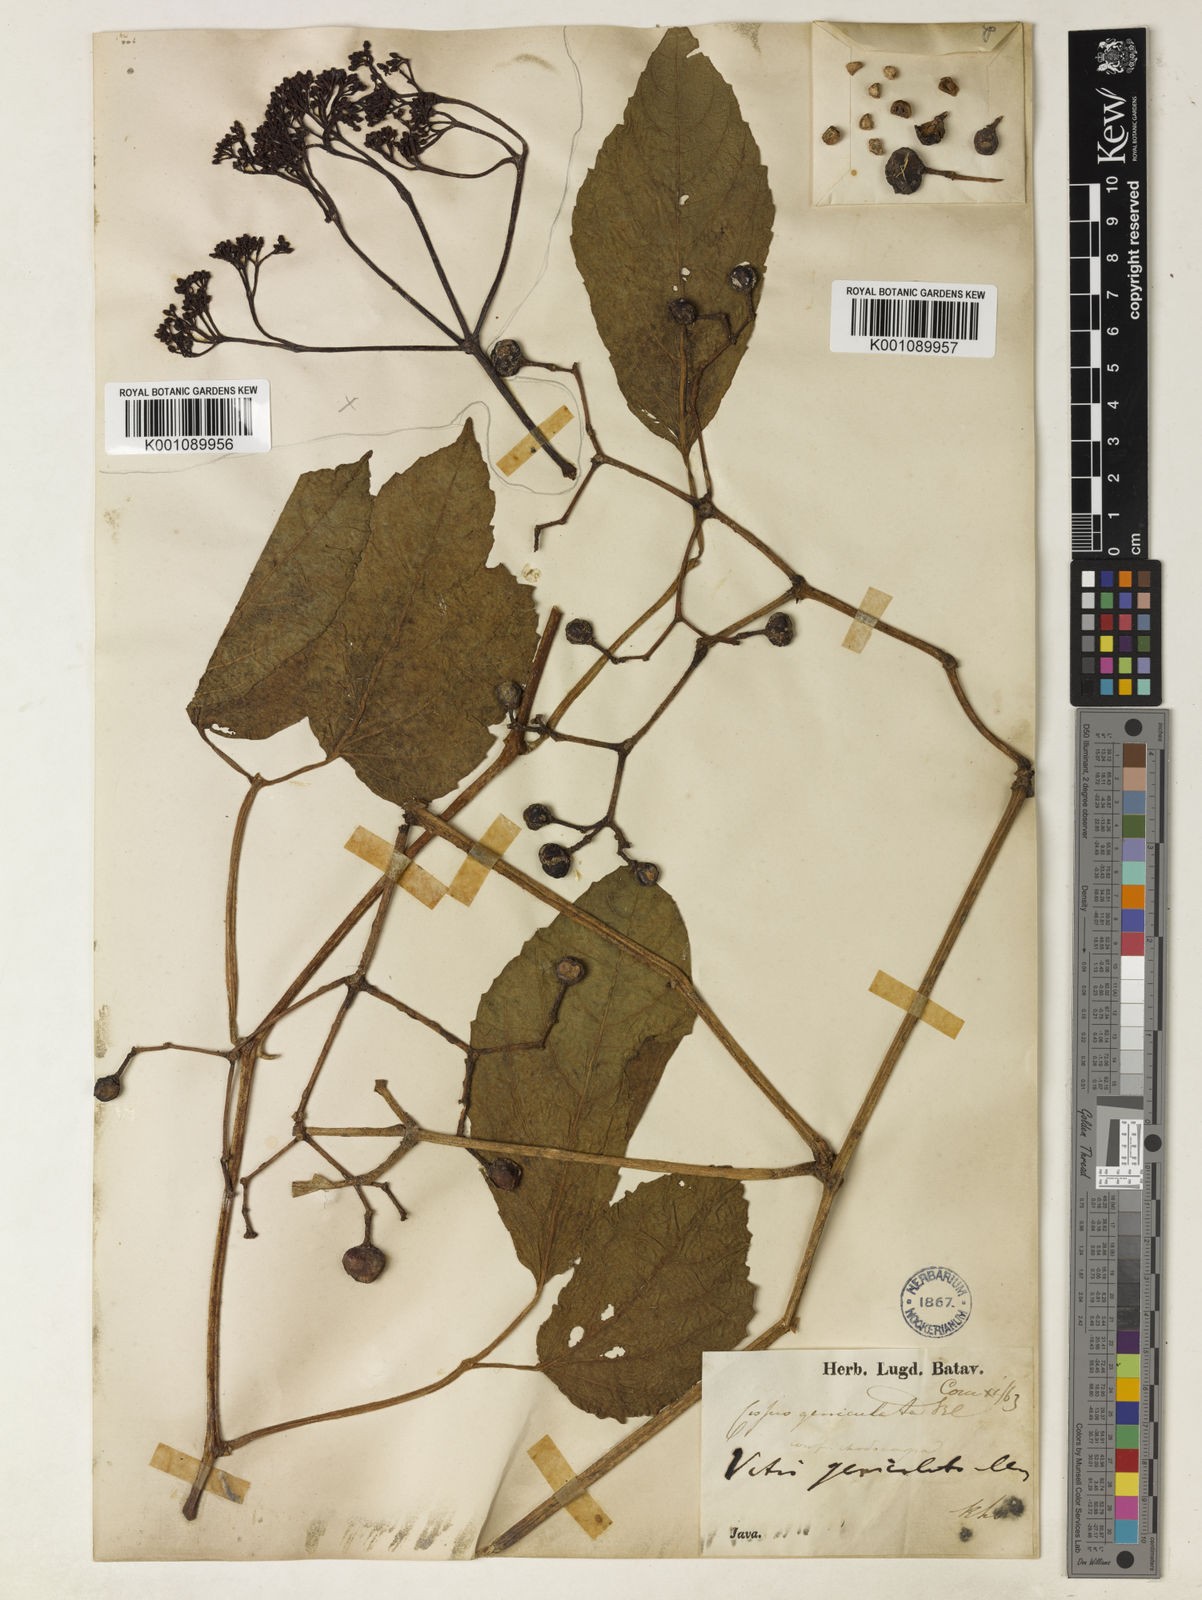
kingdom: Plantae
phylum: Tracheophyta
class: Magnoliopsida
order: Vitales
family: Vitaceae
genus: Cayratia
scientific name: Cayratia mollissima
